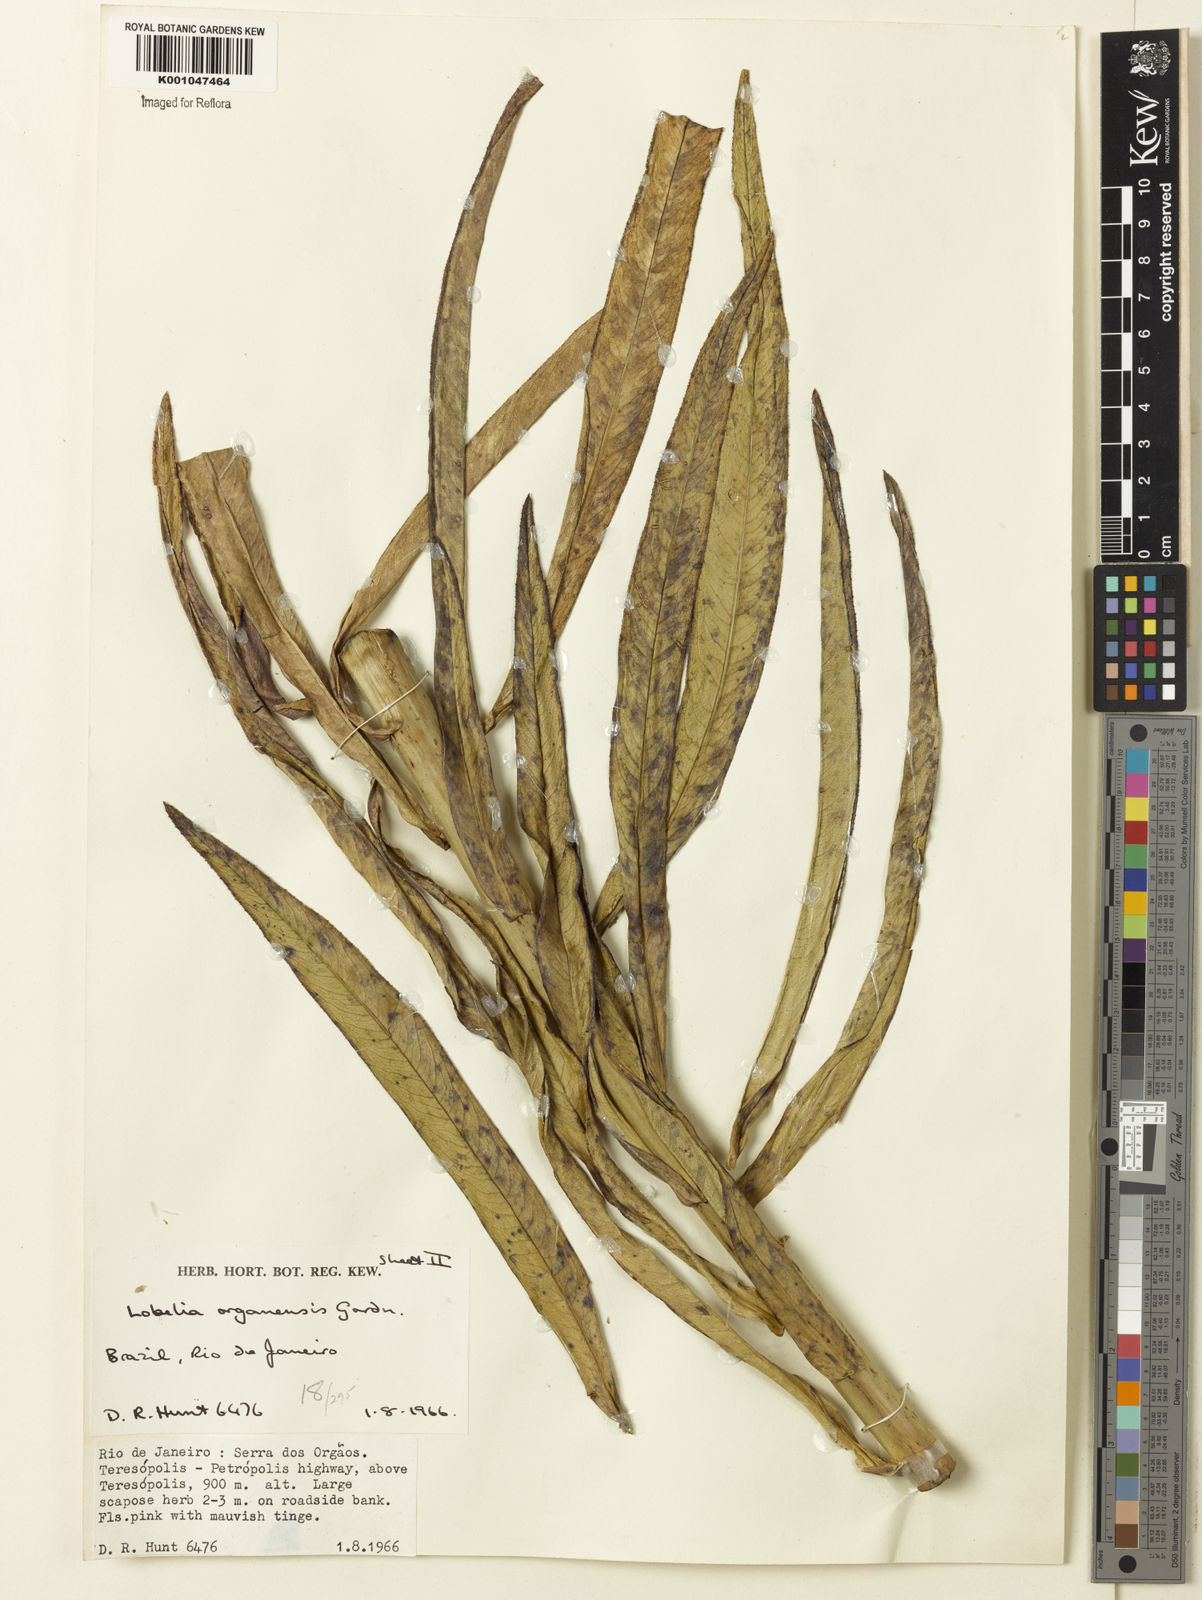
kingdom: Plantae
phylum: Tracheophyta
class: Magnoliopsida
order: Asterales
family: Campanulaceae
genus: Lobelia
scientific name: Lobelia organensis
